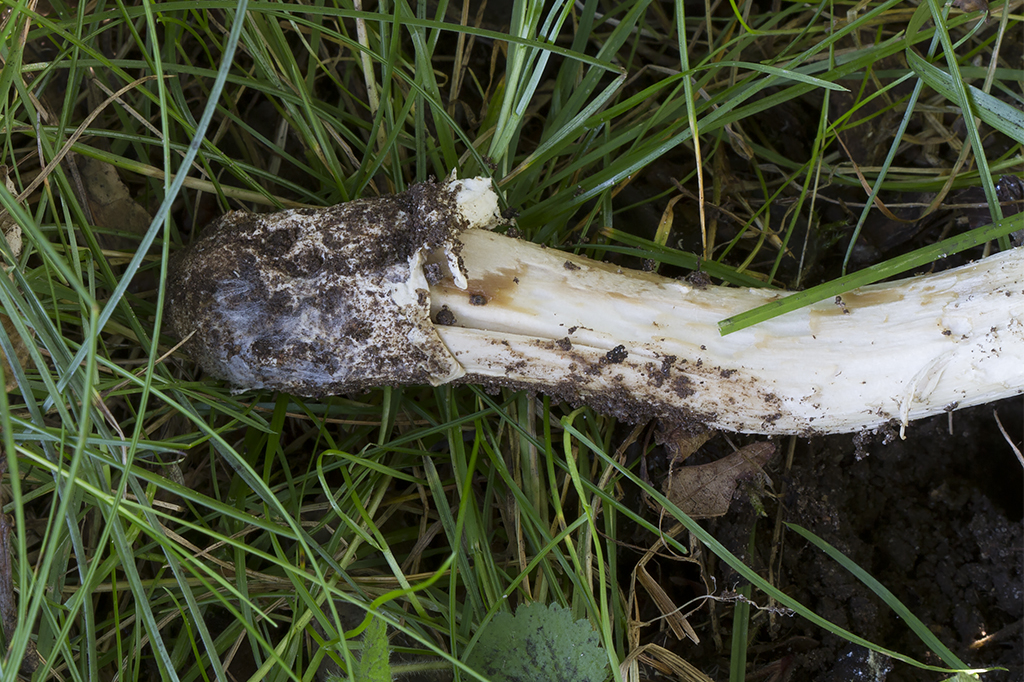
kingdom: Fungi
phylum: Basidiomycota
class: Agaricomycetes
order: Agaricales
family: Amanitaceae
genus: Amanita
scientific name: Amanita calida
